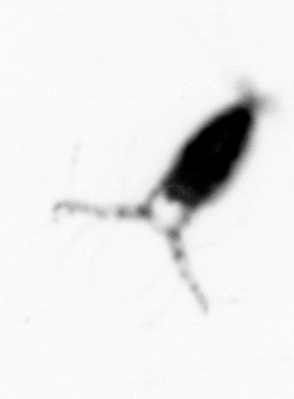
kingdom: Animalia
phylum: Arthropoda
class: Copepoda
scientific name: Copepoda
